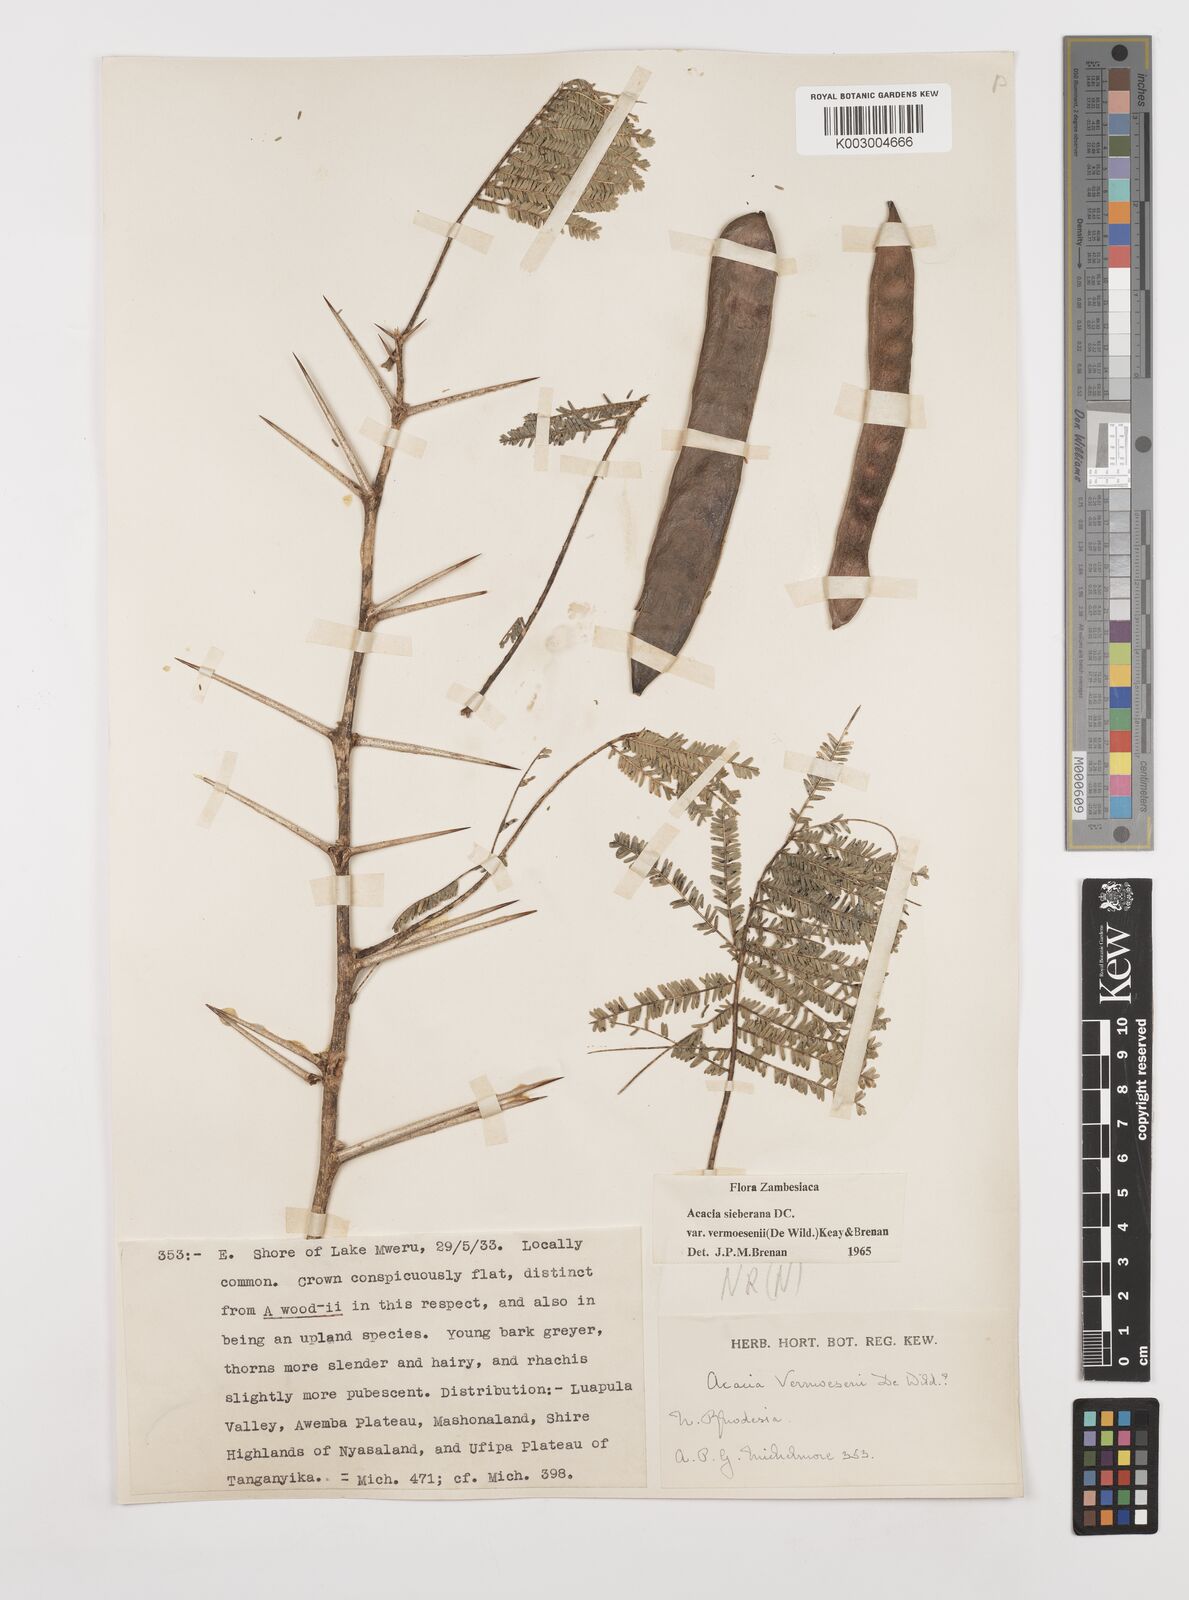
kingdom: Plantae
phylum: Tracheophyta
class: Magnoliopsida
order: Fabales
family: Fabaceae
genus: Vachellia
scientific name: Vachellia sieberiana
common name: Flat-topped thorn
